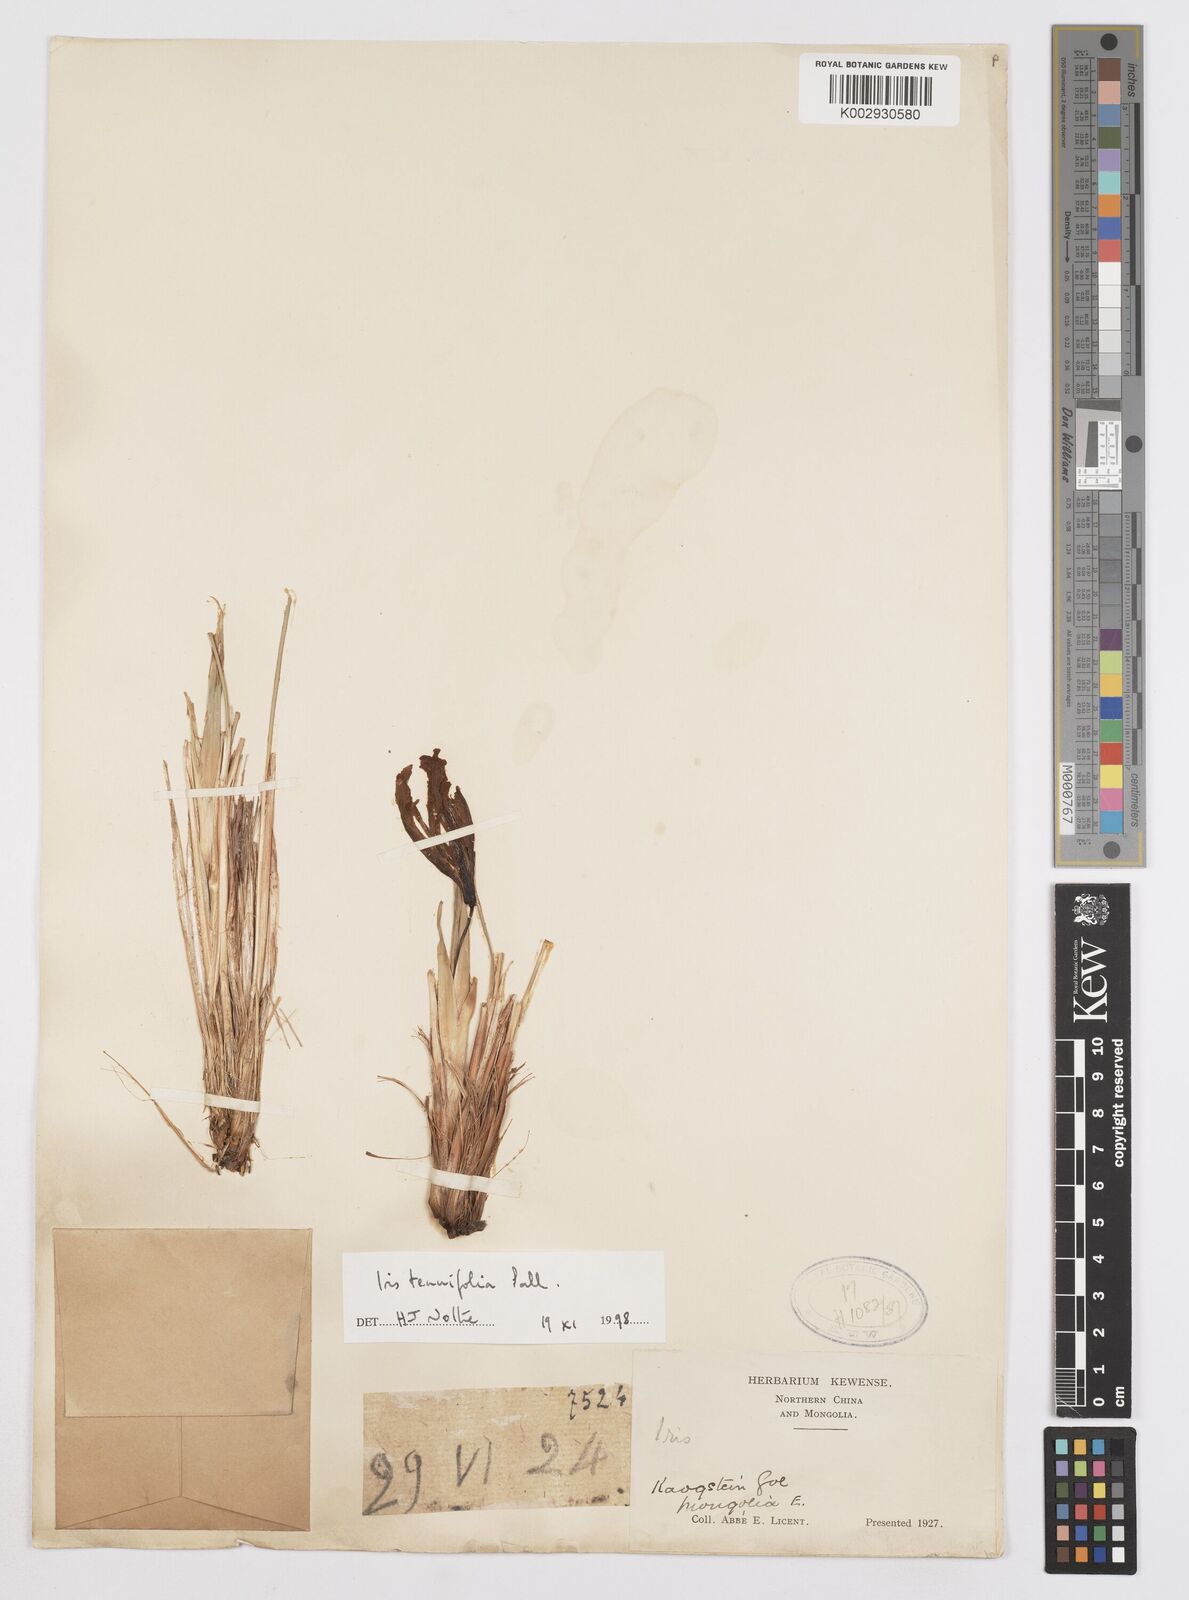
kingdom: Plantae
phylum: Tracheophyta
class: Liliopsida
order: Asparagales
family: Iridaceae
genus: Iris
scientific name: Iris tenuifolia
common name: Slender-leaf iris
